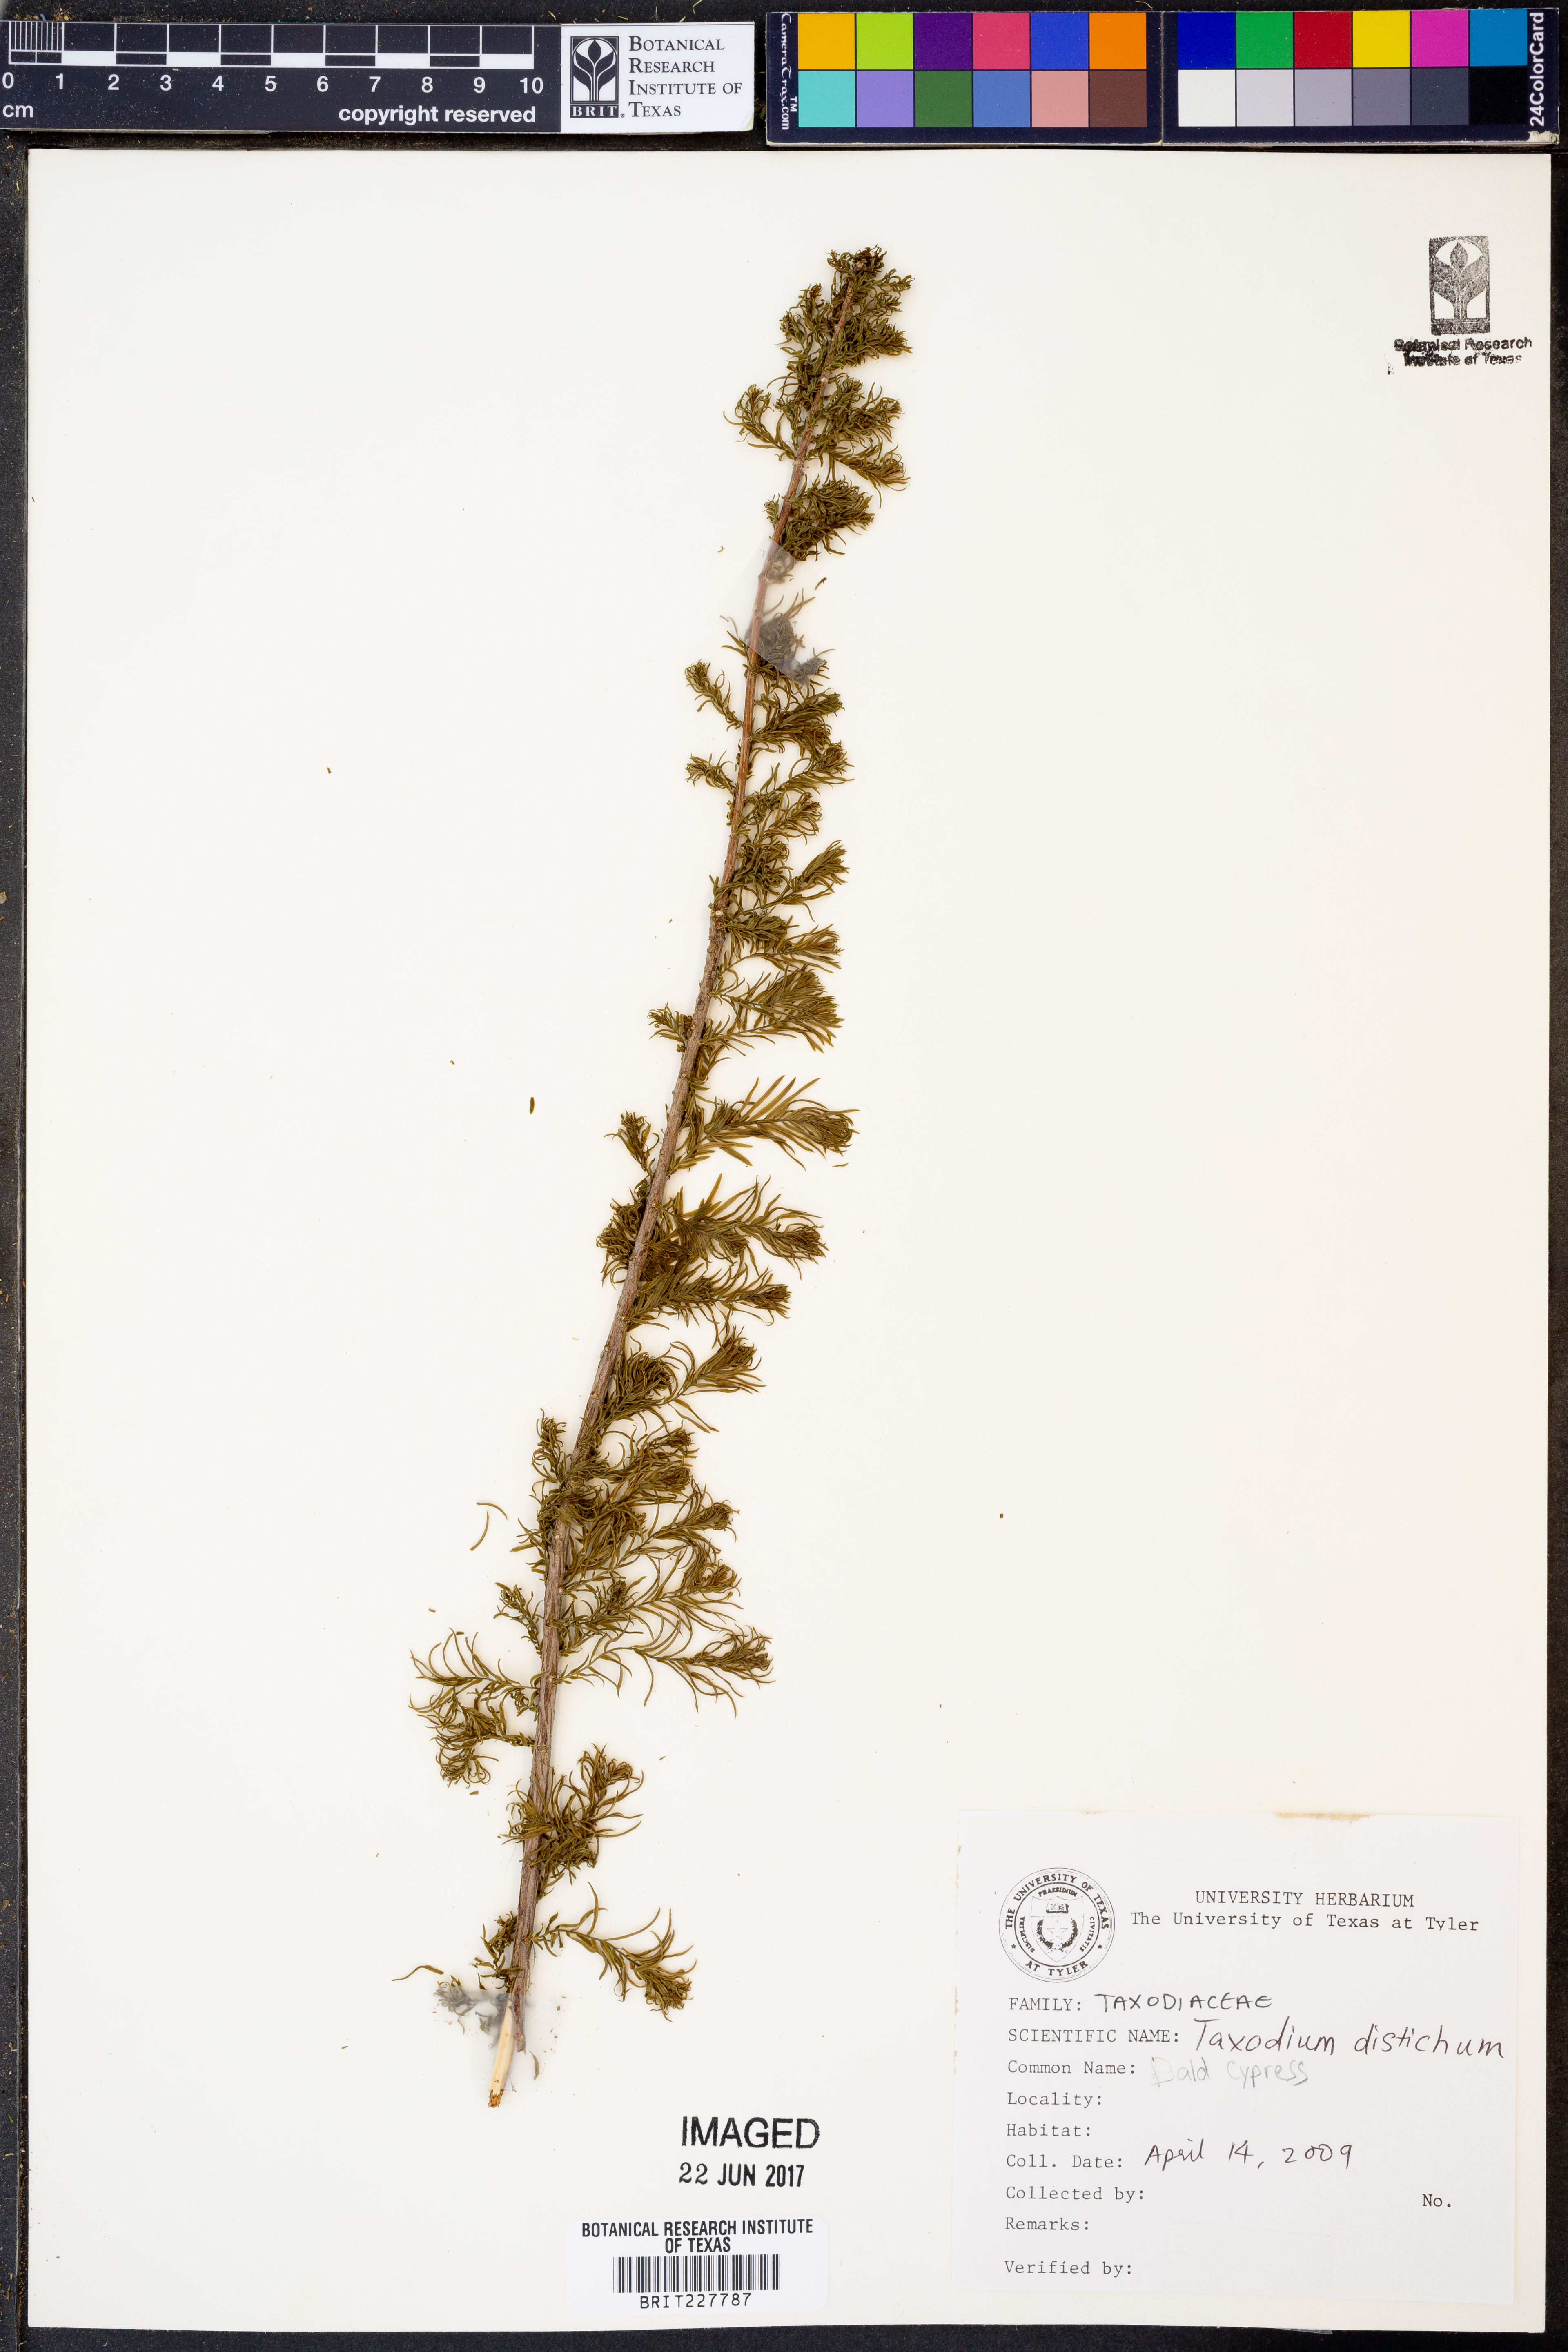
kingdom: Plantae
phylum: Tracheophyta
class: Pinopsida
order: Pinales
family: Cupressaceae
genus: Taxodium
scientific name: Taxodium distichum
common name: Bald cypress
